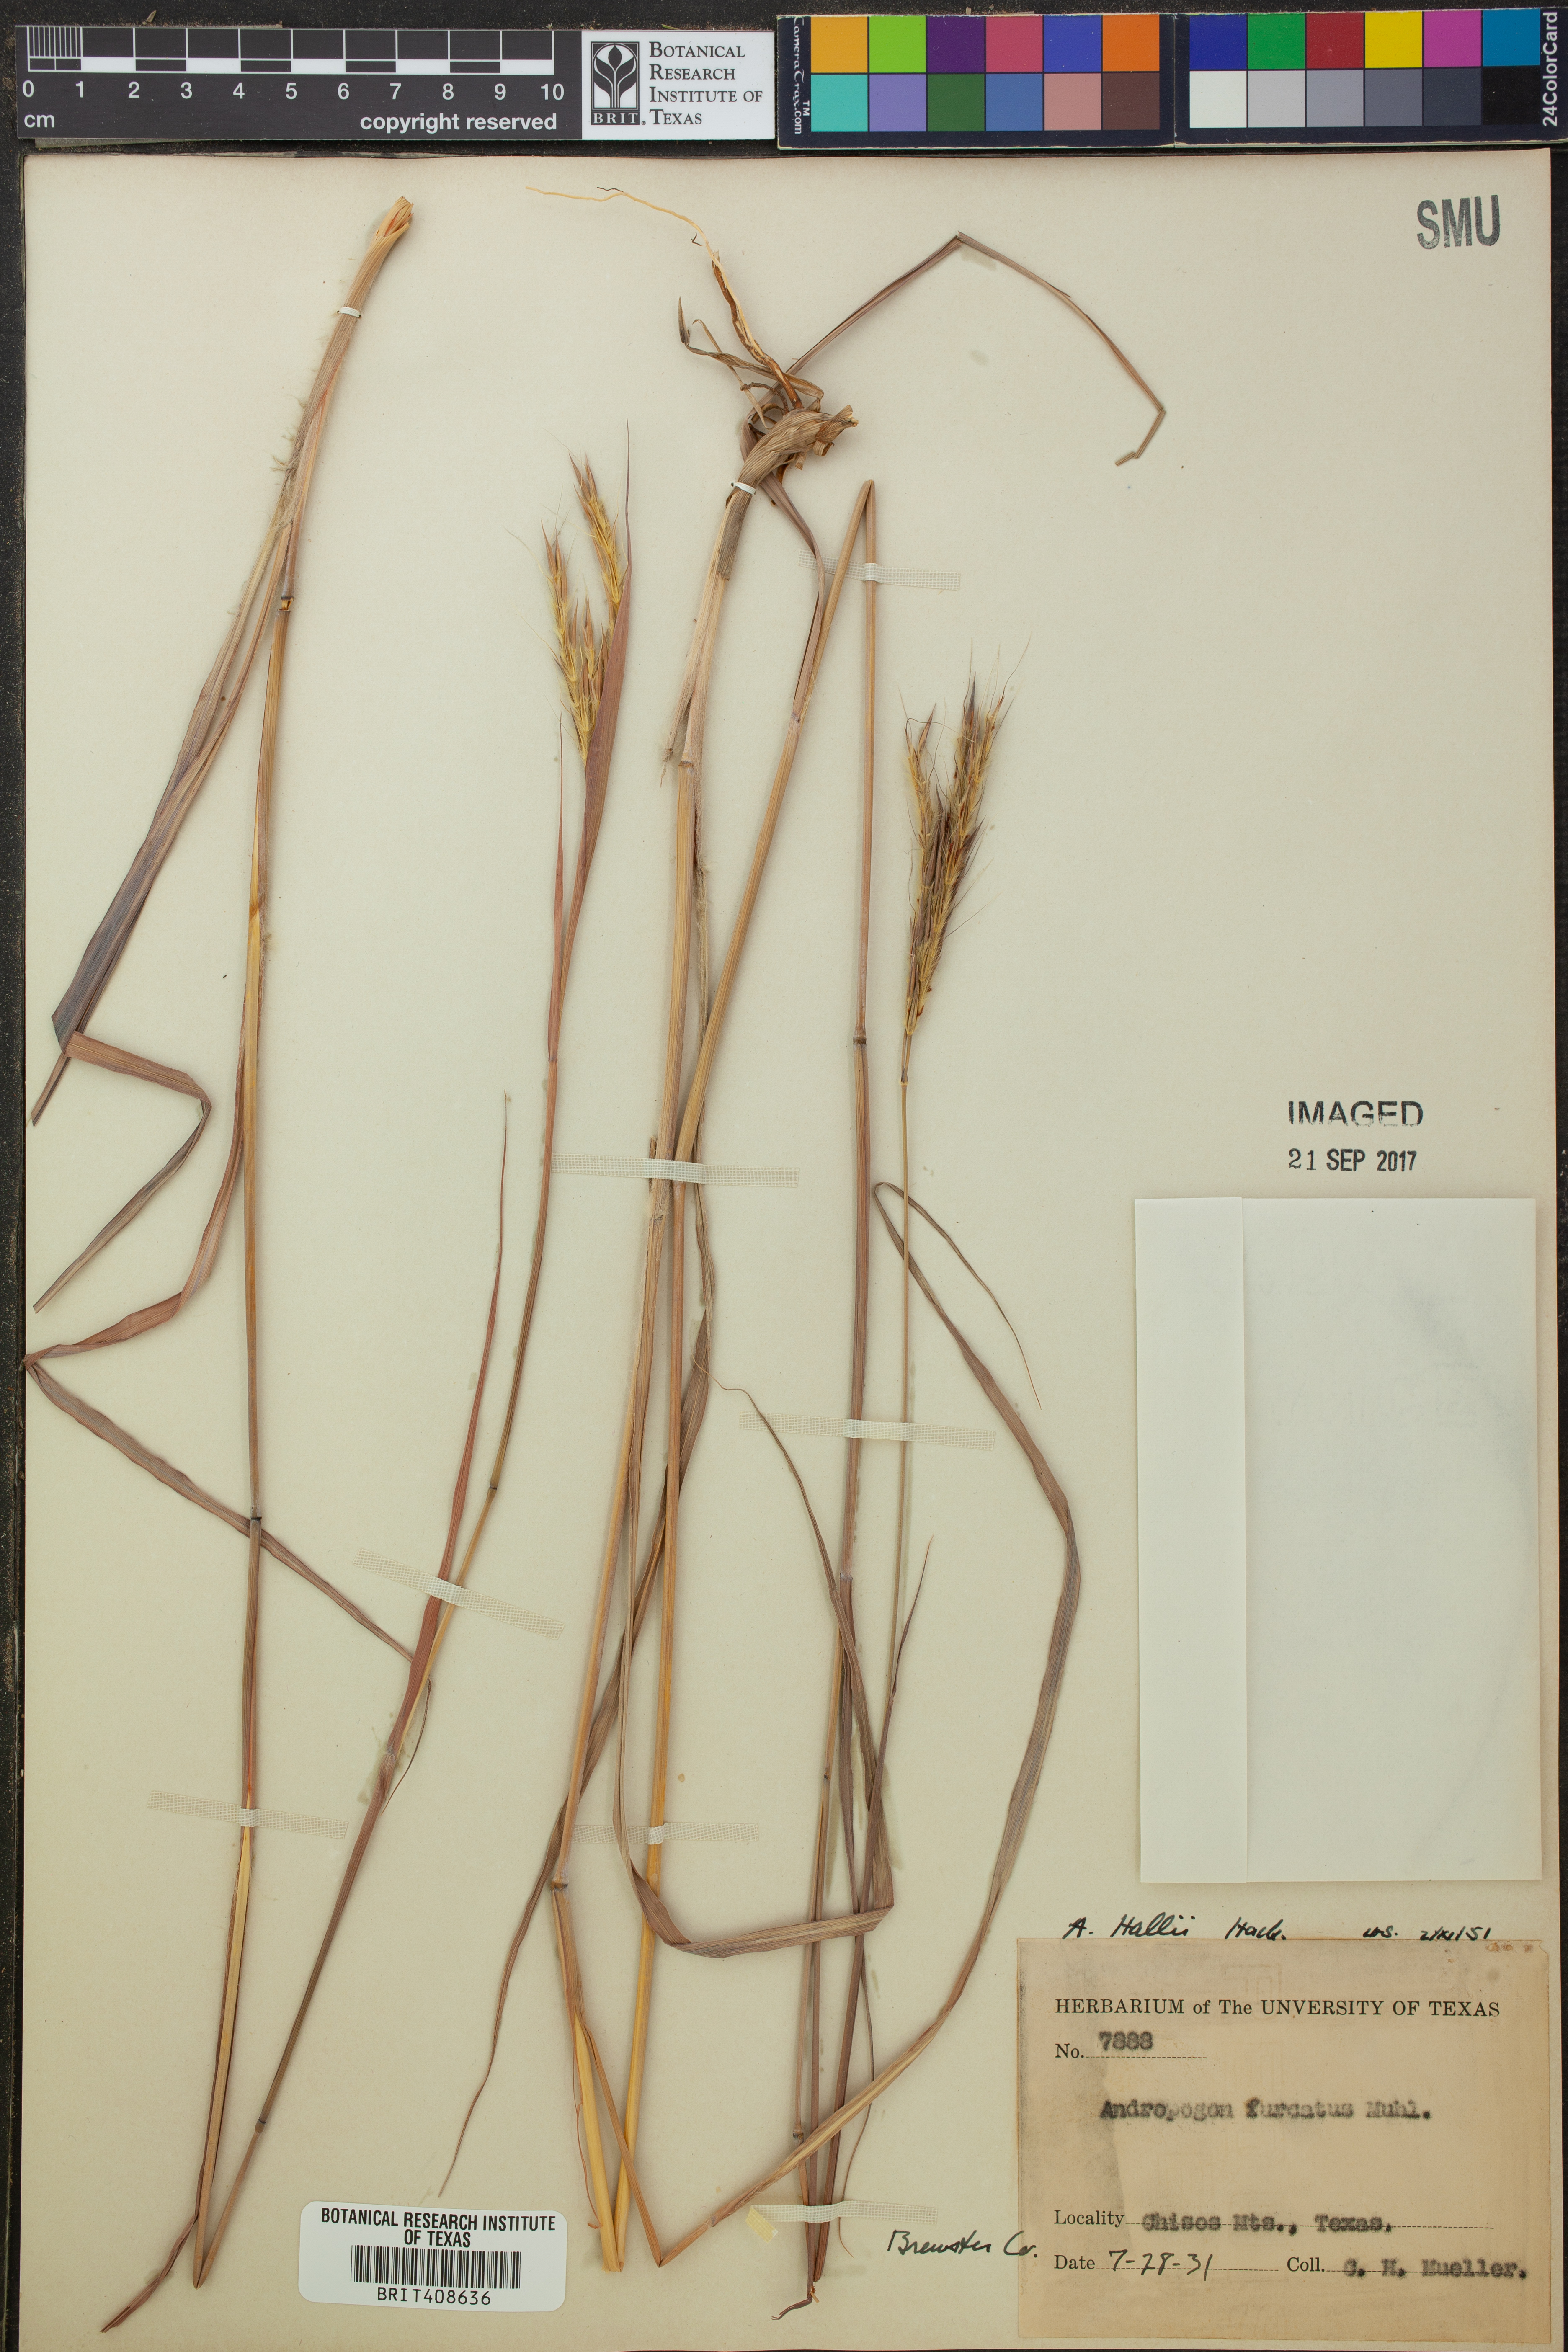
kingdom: Plantae
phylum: Tracheophyta
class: Liliopsida
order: Poales
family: Poaceae
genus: Andropogon
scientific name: Andropogon hallii
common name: Sand bluestem
